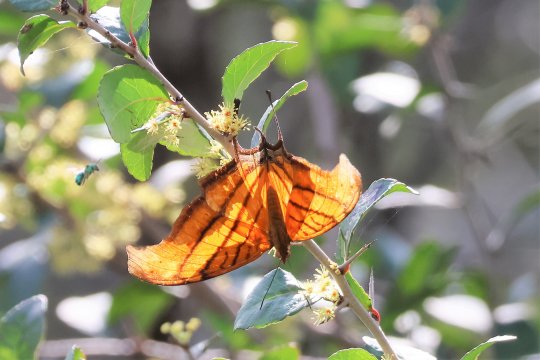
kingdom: Animalia
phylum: Arthropoda
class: Insecta
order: Lepidoptera
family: Nymphalidae
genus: Marpesia
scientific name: Marpesia petreus
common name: Ruddy Daggerwing
